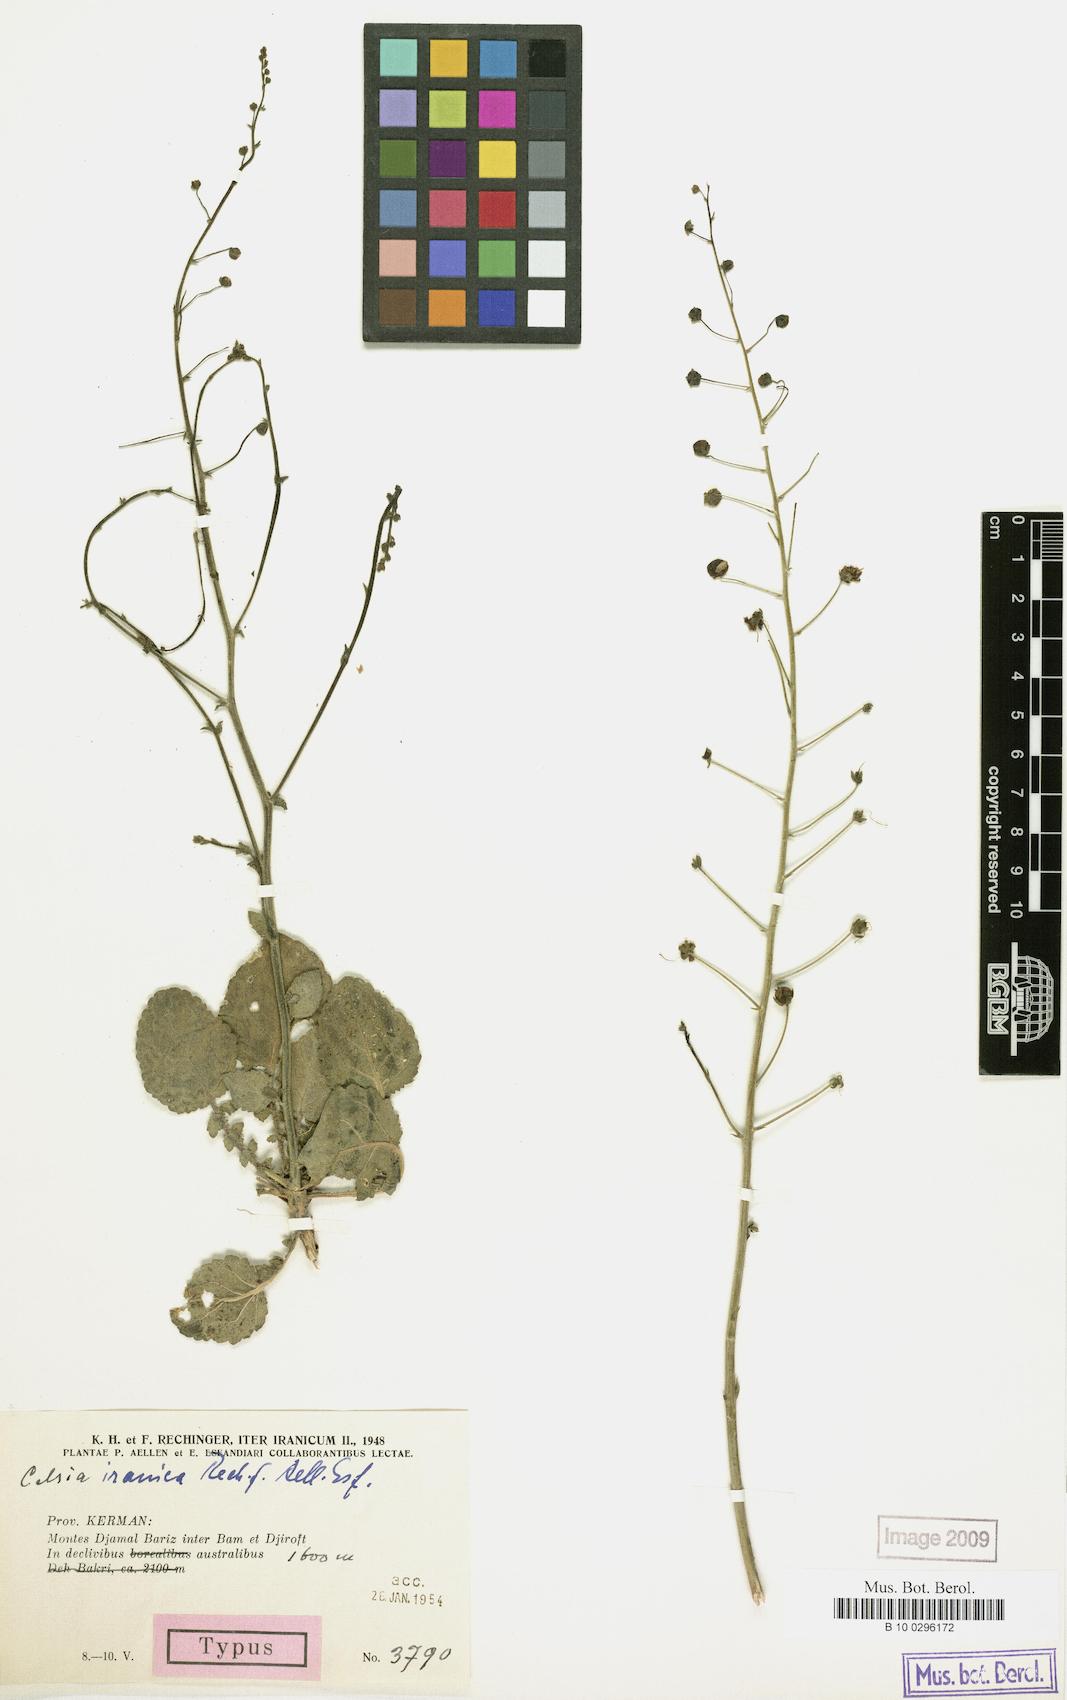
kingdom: Plantae
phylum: Tracheophyta
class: Magnoliopsida
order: Lamiales
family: Scrophulariaceae
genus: Verbascum
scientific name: Verbascum farsistanicum
